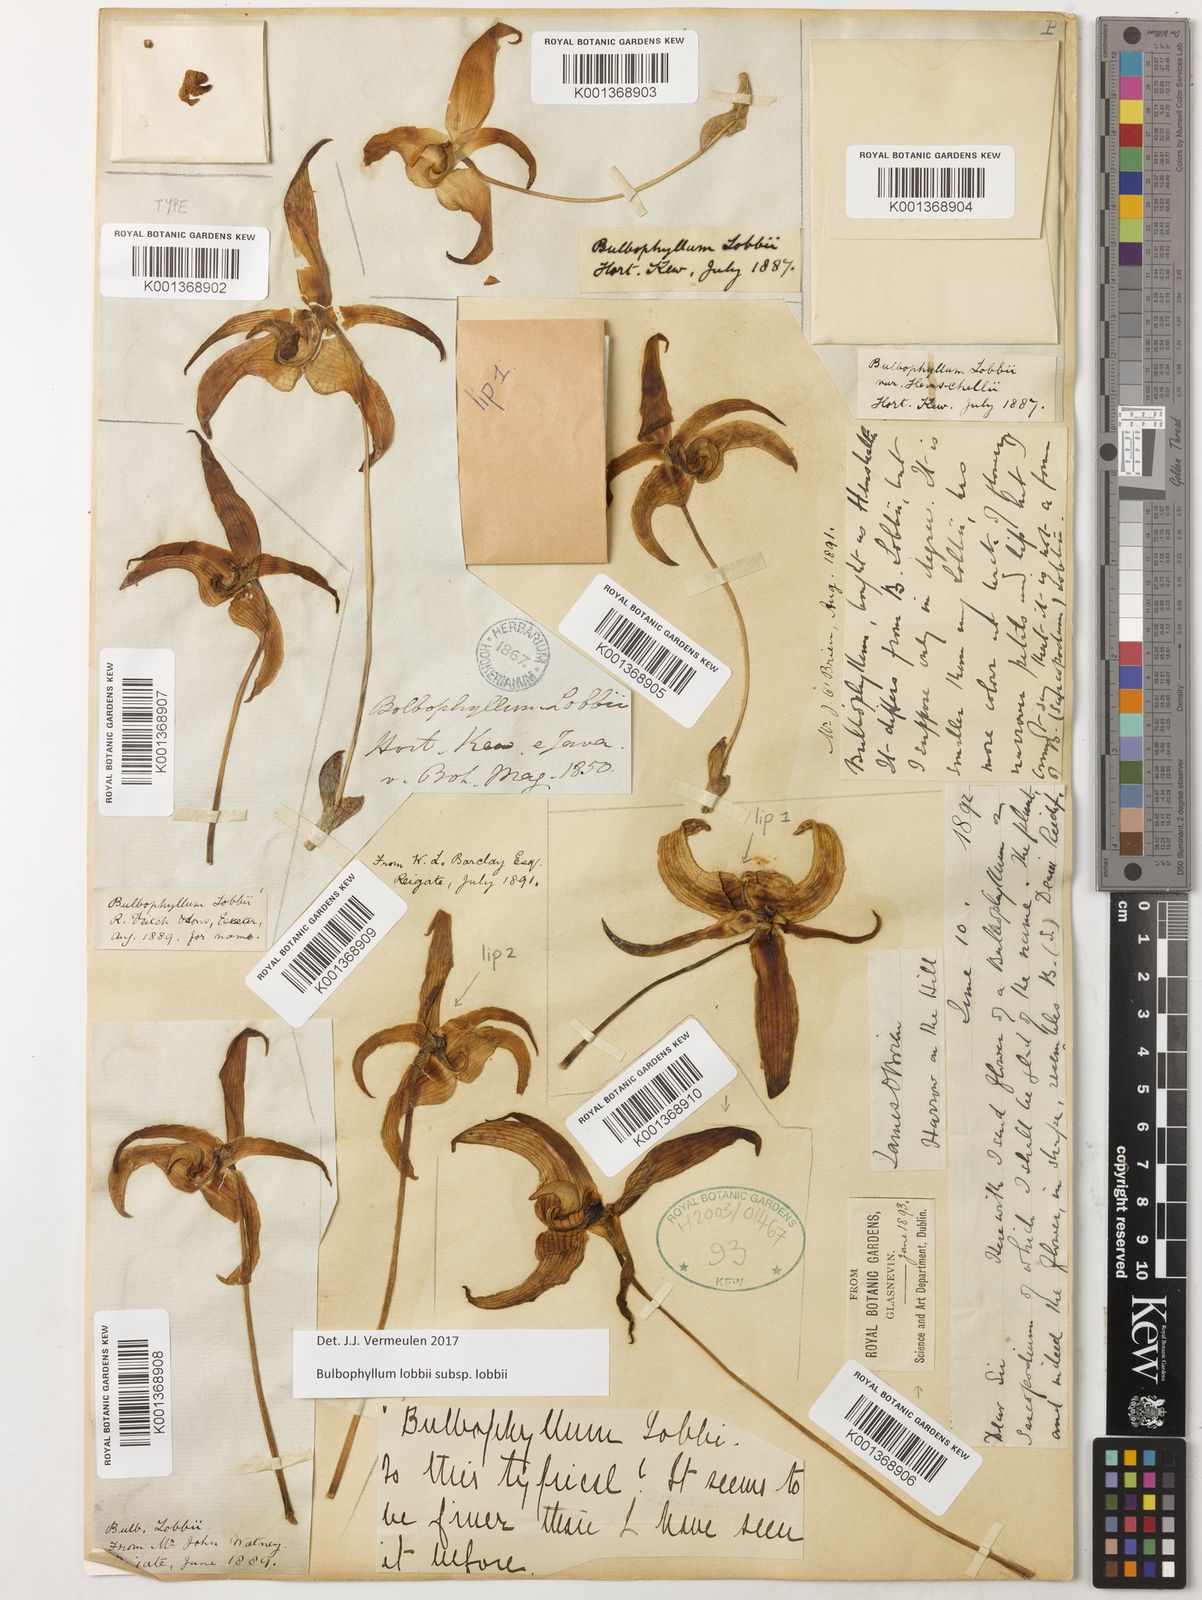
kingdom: Plantae
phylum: Tracheophyta
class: Liliopsida
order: Asparagales
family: Orchidaceae
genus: Bulbophyllum
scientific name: Bulbophyllum lobbii
